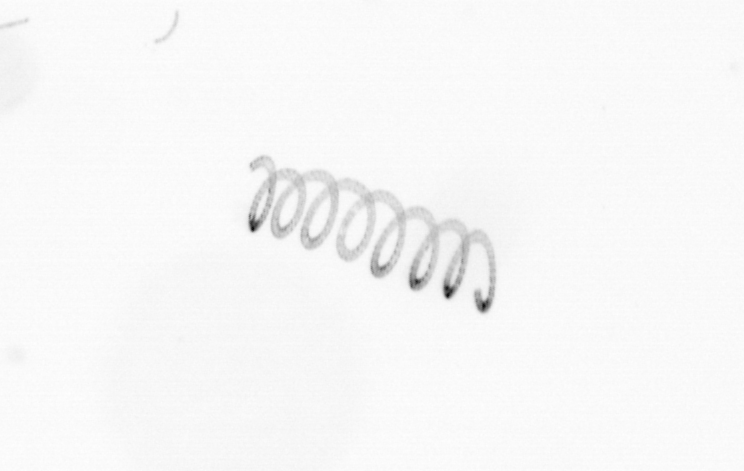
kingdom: Chromista
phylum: Ochrophyta
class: Bacillariophyceae
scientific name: Bacillariophyceae
